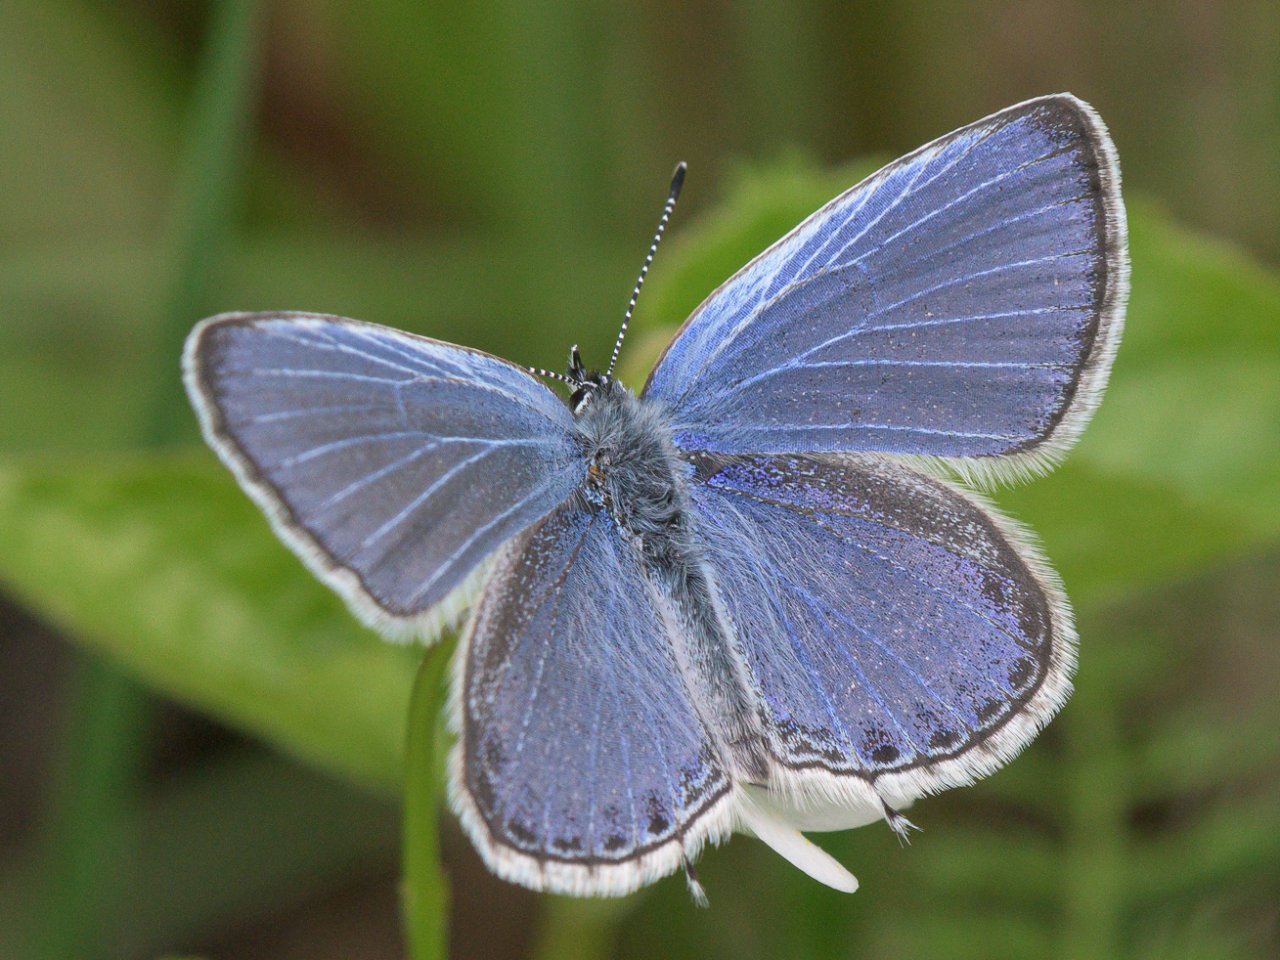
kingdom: Animalia
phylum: Arthropoda
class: Insecta
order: Lepidoptera
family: Lycaenidae
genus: Elkalyce
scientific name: Elkalyce amyntula
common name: Western Tailed-Blue
